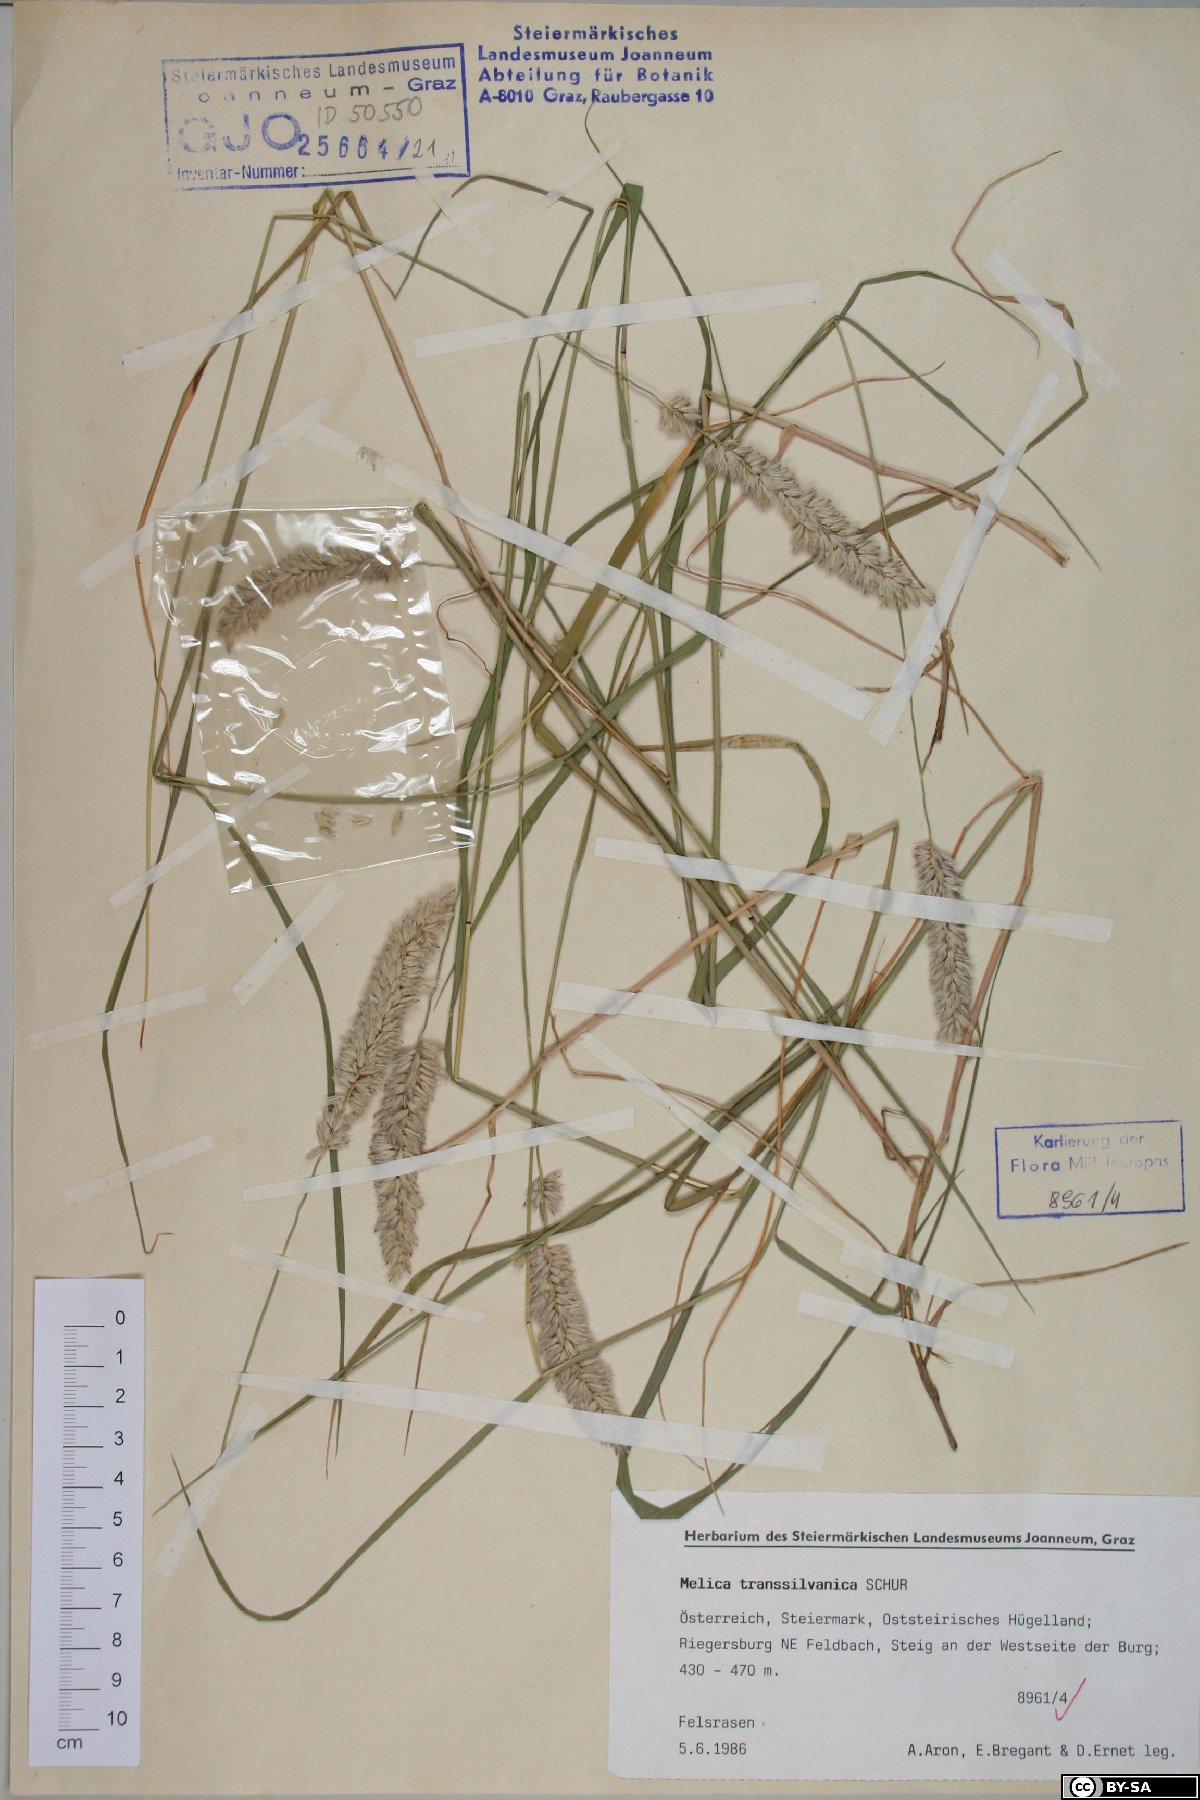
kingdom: Plantae
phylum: Tracheophyta
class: Liliopsida
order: Poales
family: Poaceae
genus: Melica
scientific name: Melica transsilvanica
